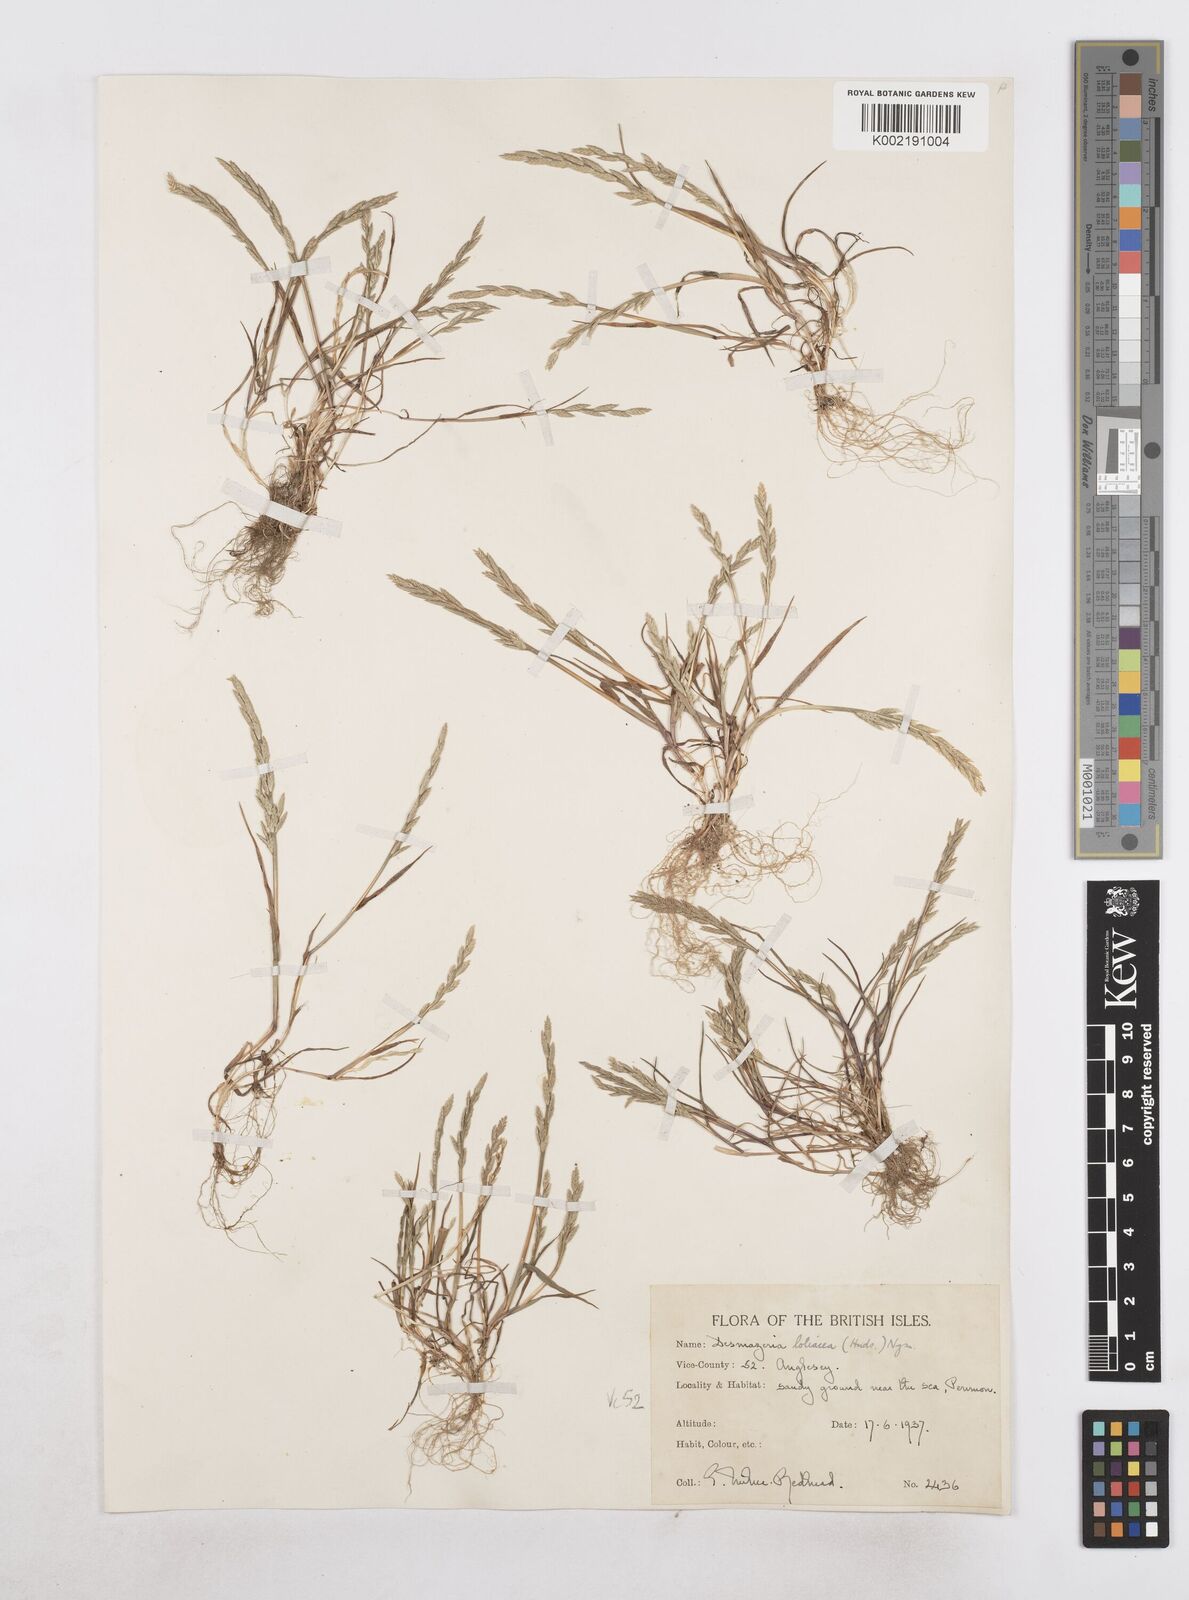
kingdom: Plantae
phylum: Tracheophyta
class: Liliopsida
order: Poales
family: Poaceae
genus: Catapodium
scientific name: Catapodium marinum
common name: Sea fern-grass
